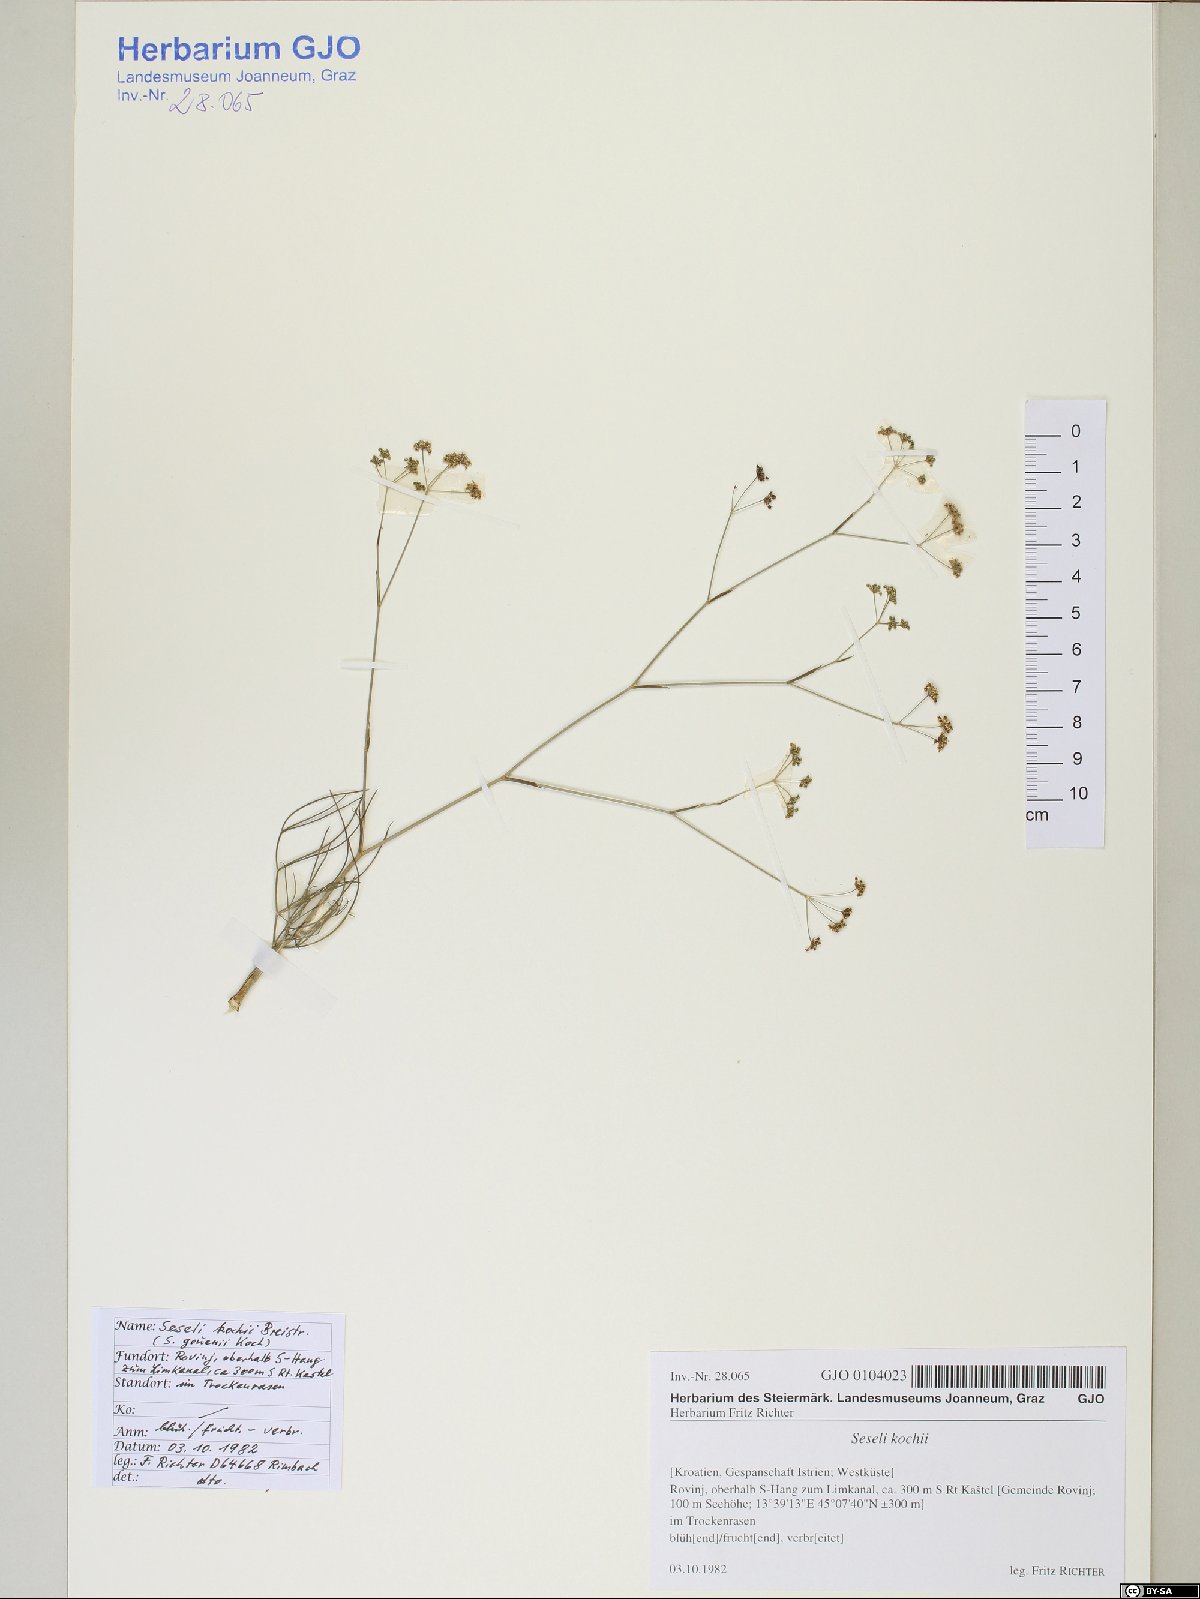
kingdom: Plantae
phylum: Tracheophyta
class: Magnoliopsida
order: Apiales
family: Apiaceae
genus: Seseli
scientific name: Seseli gouanii
